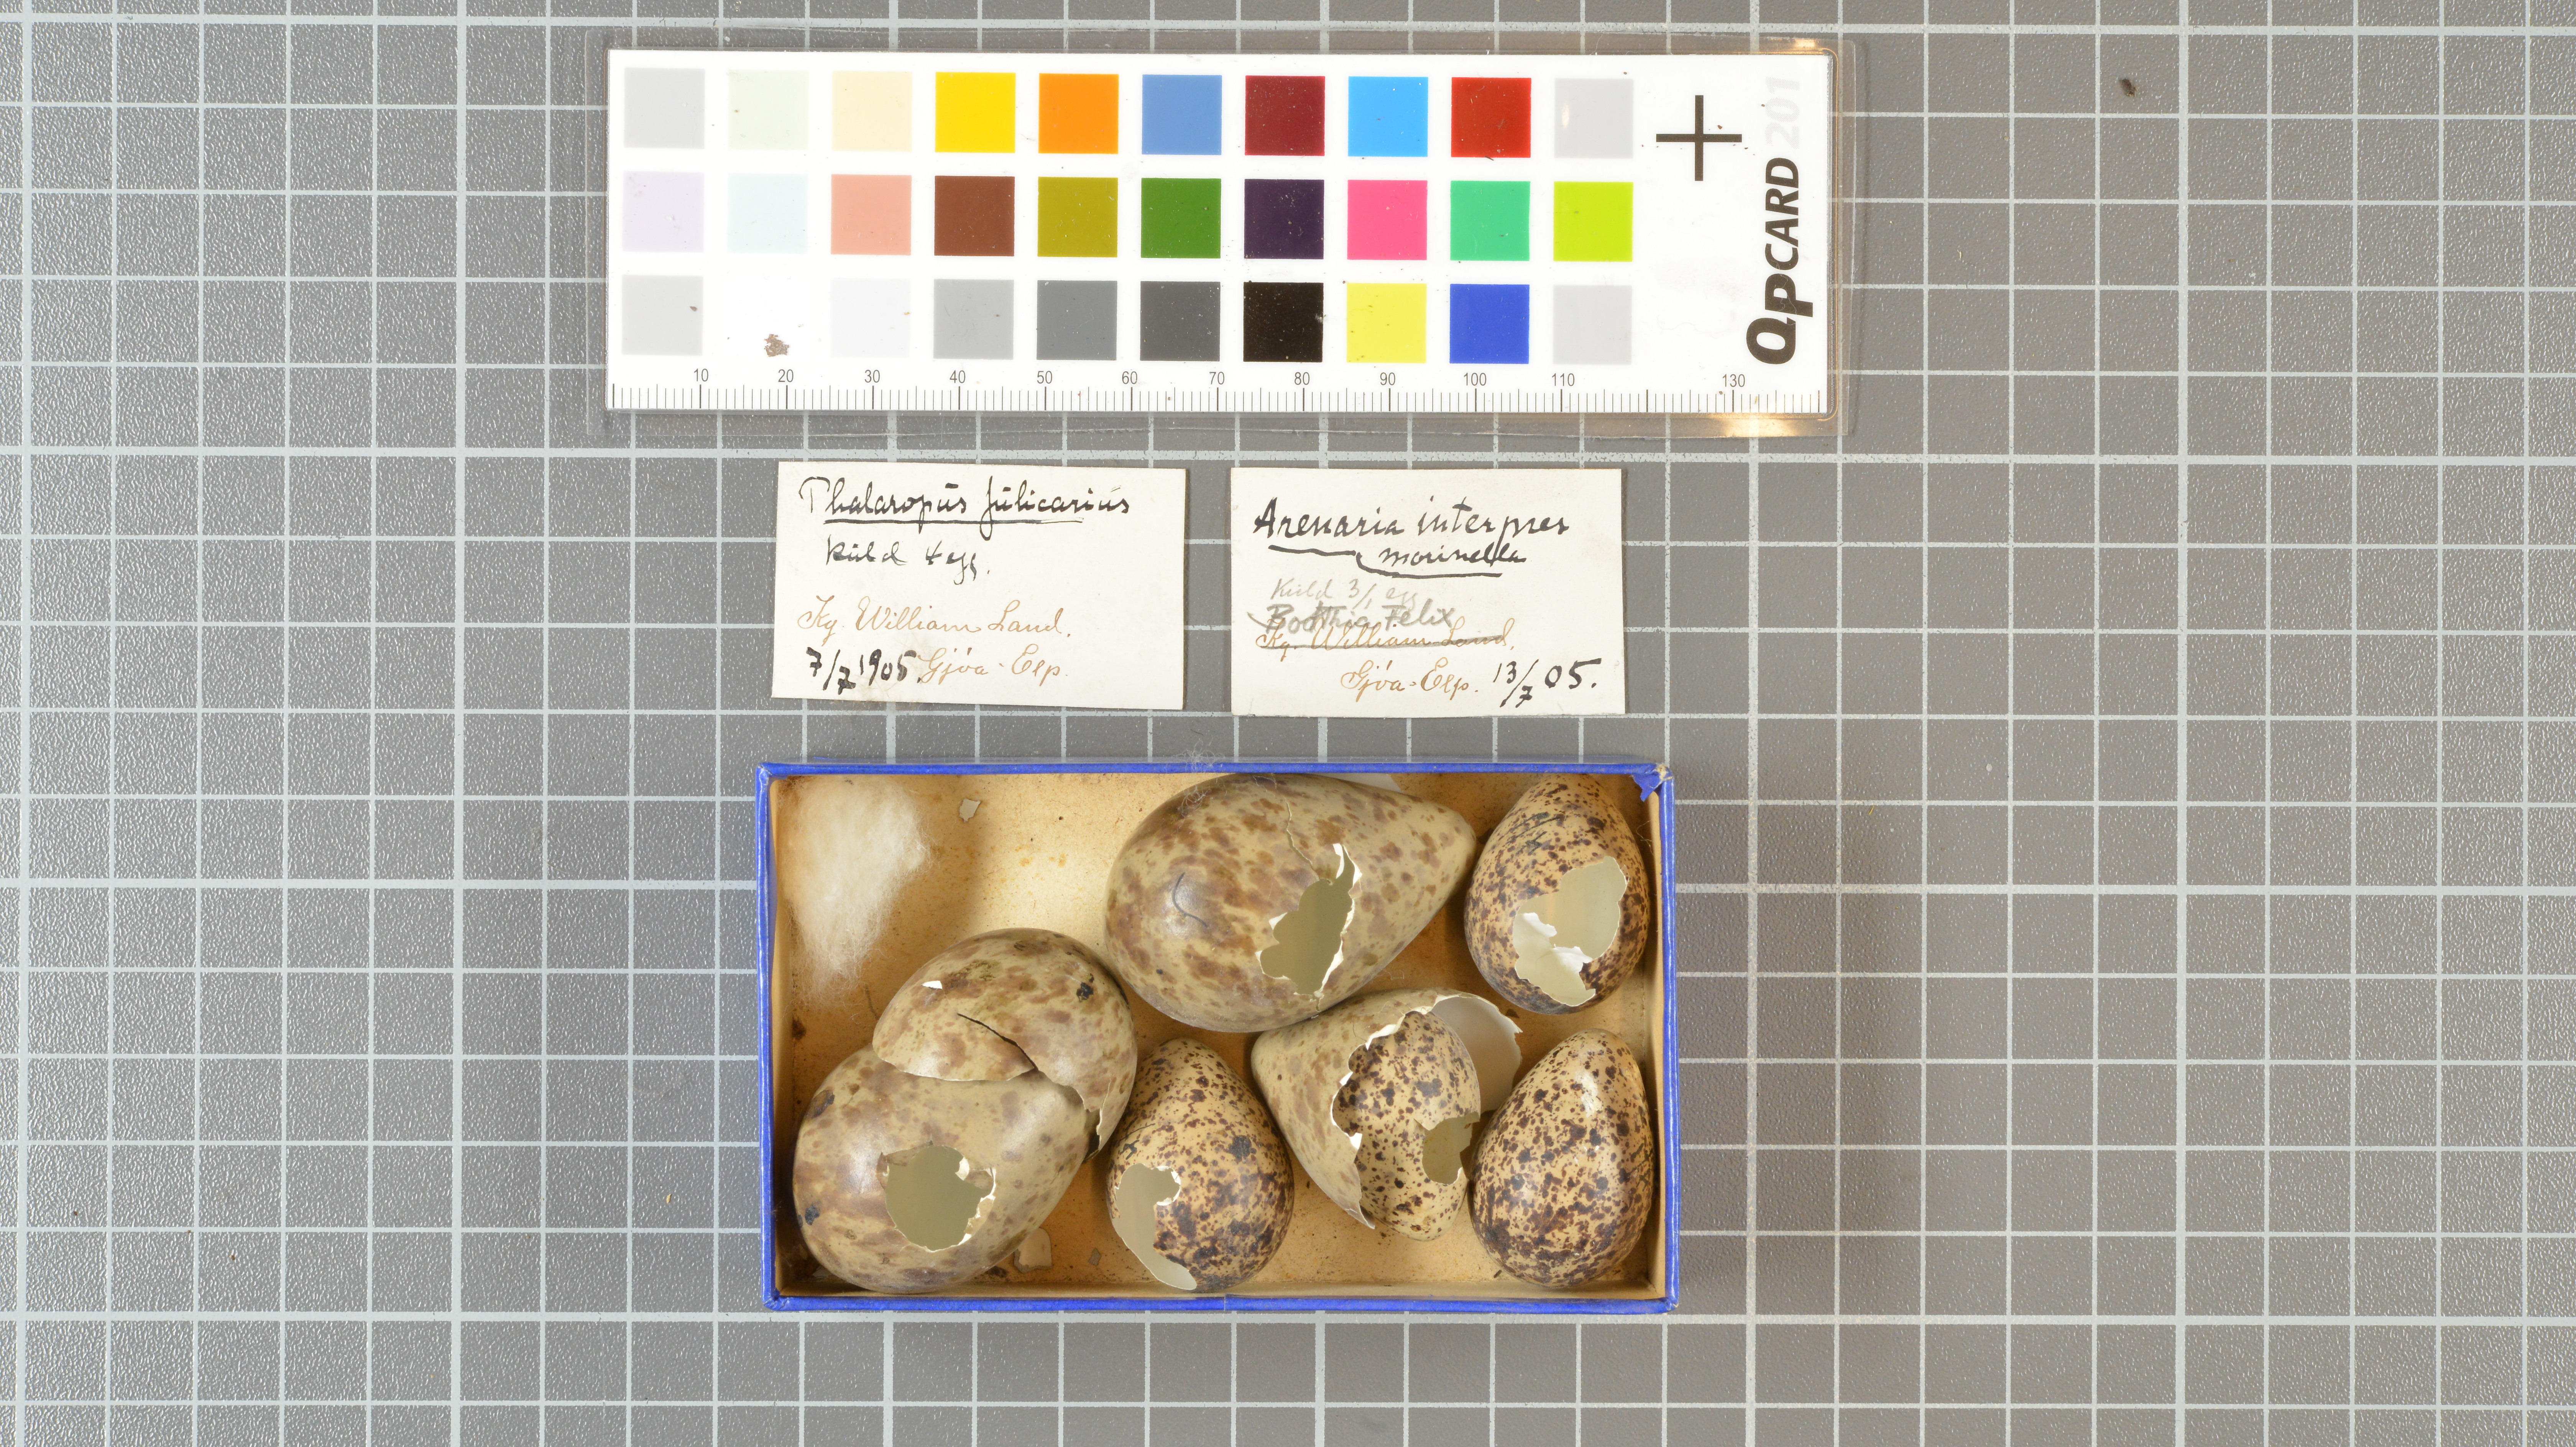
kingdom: Animalia
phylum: Chordata
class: Aves
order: Charadriiformes
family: Scolopacidae
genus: Arenaria
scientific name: Arenaria interpres
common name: Ruddy turnstone
